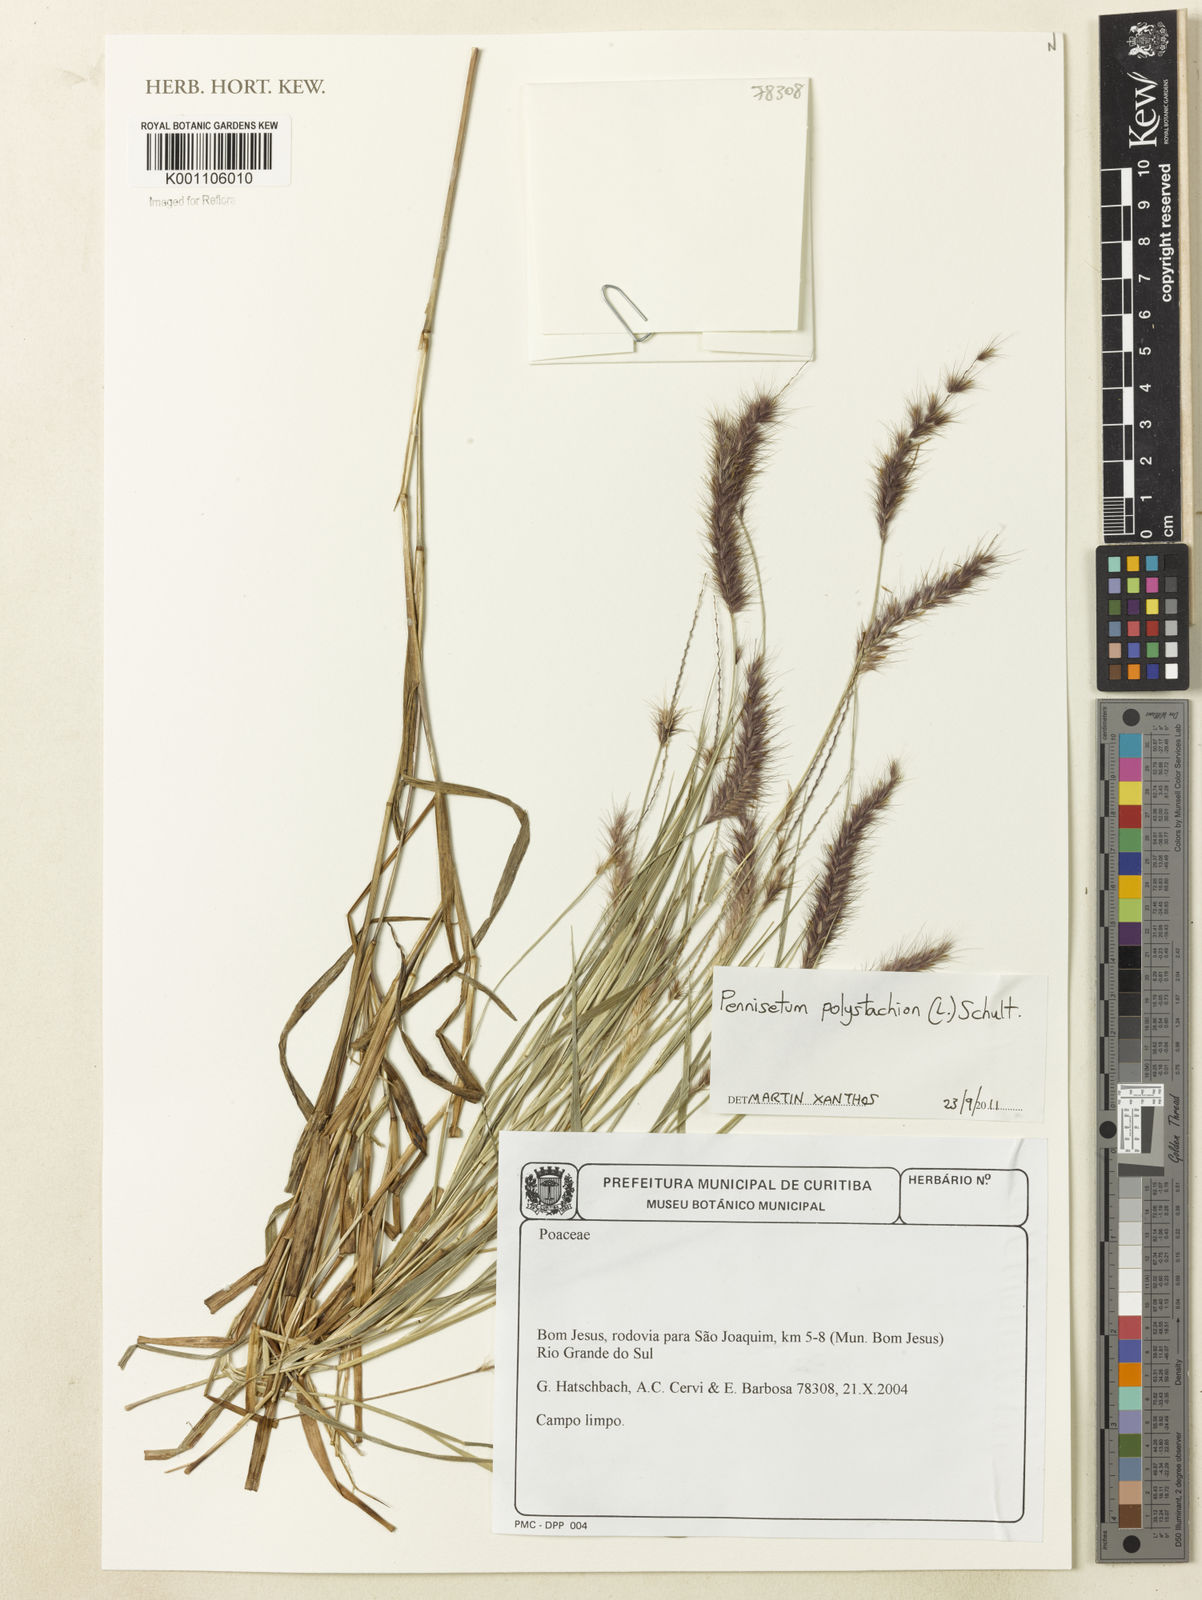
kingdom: Plantae
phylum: Tracheophyta
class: Liliopsida
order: Poales
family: Poaceae
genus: Setaria
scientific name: Setaria parviflora
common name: Knotroot bristle-grass
